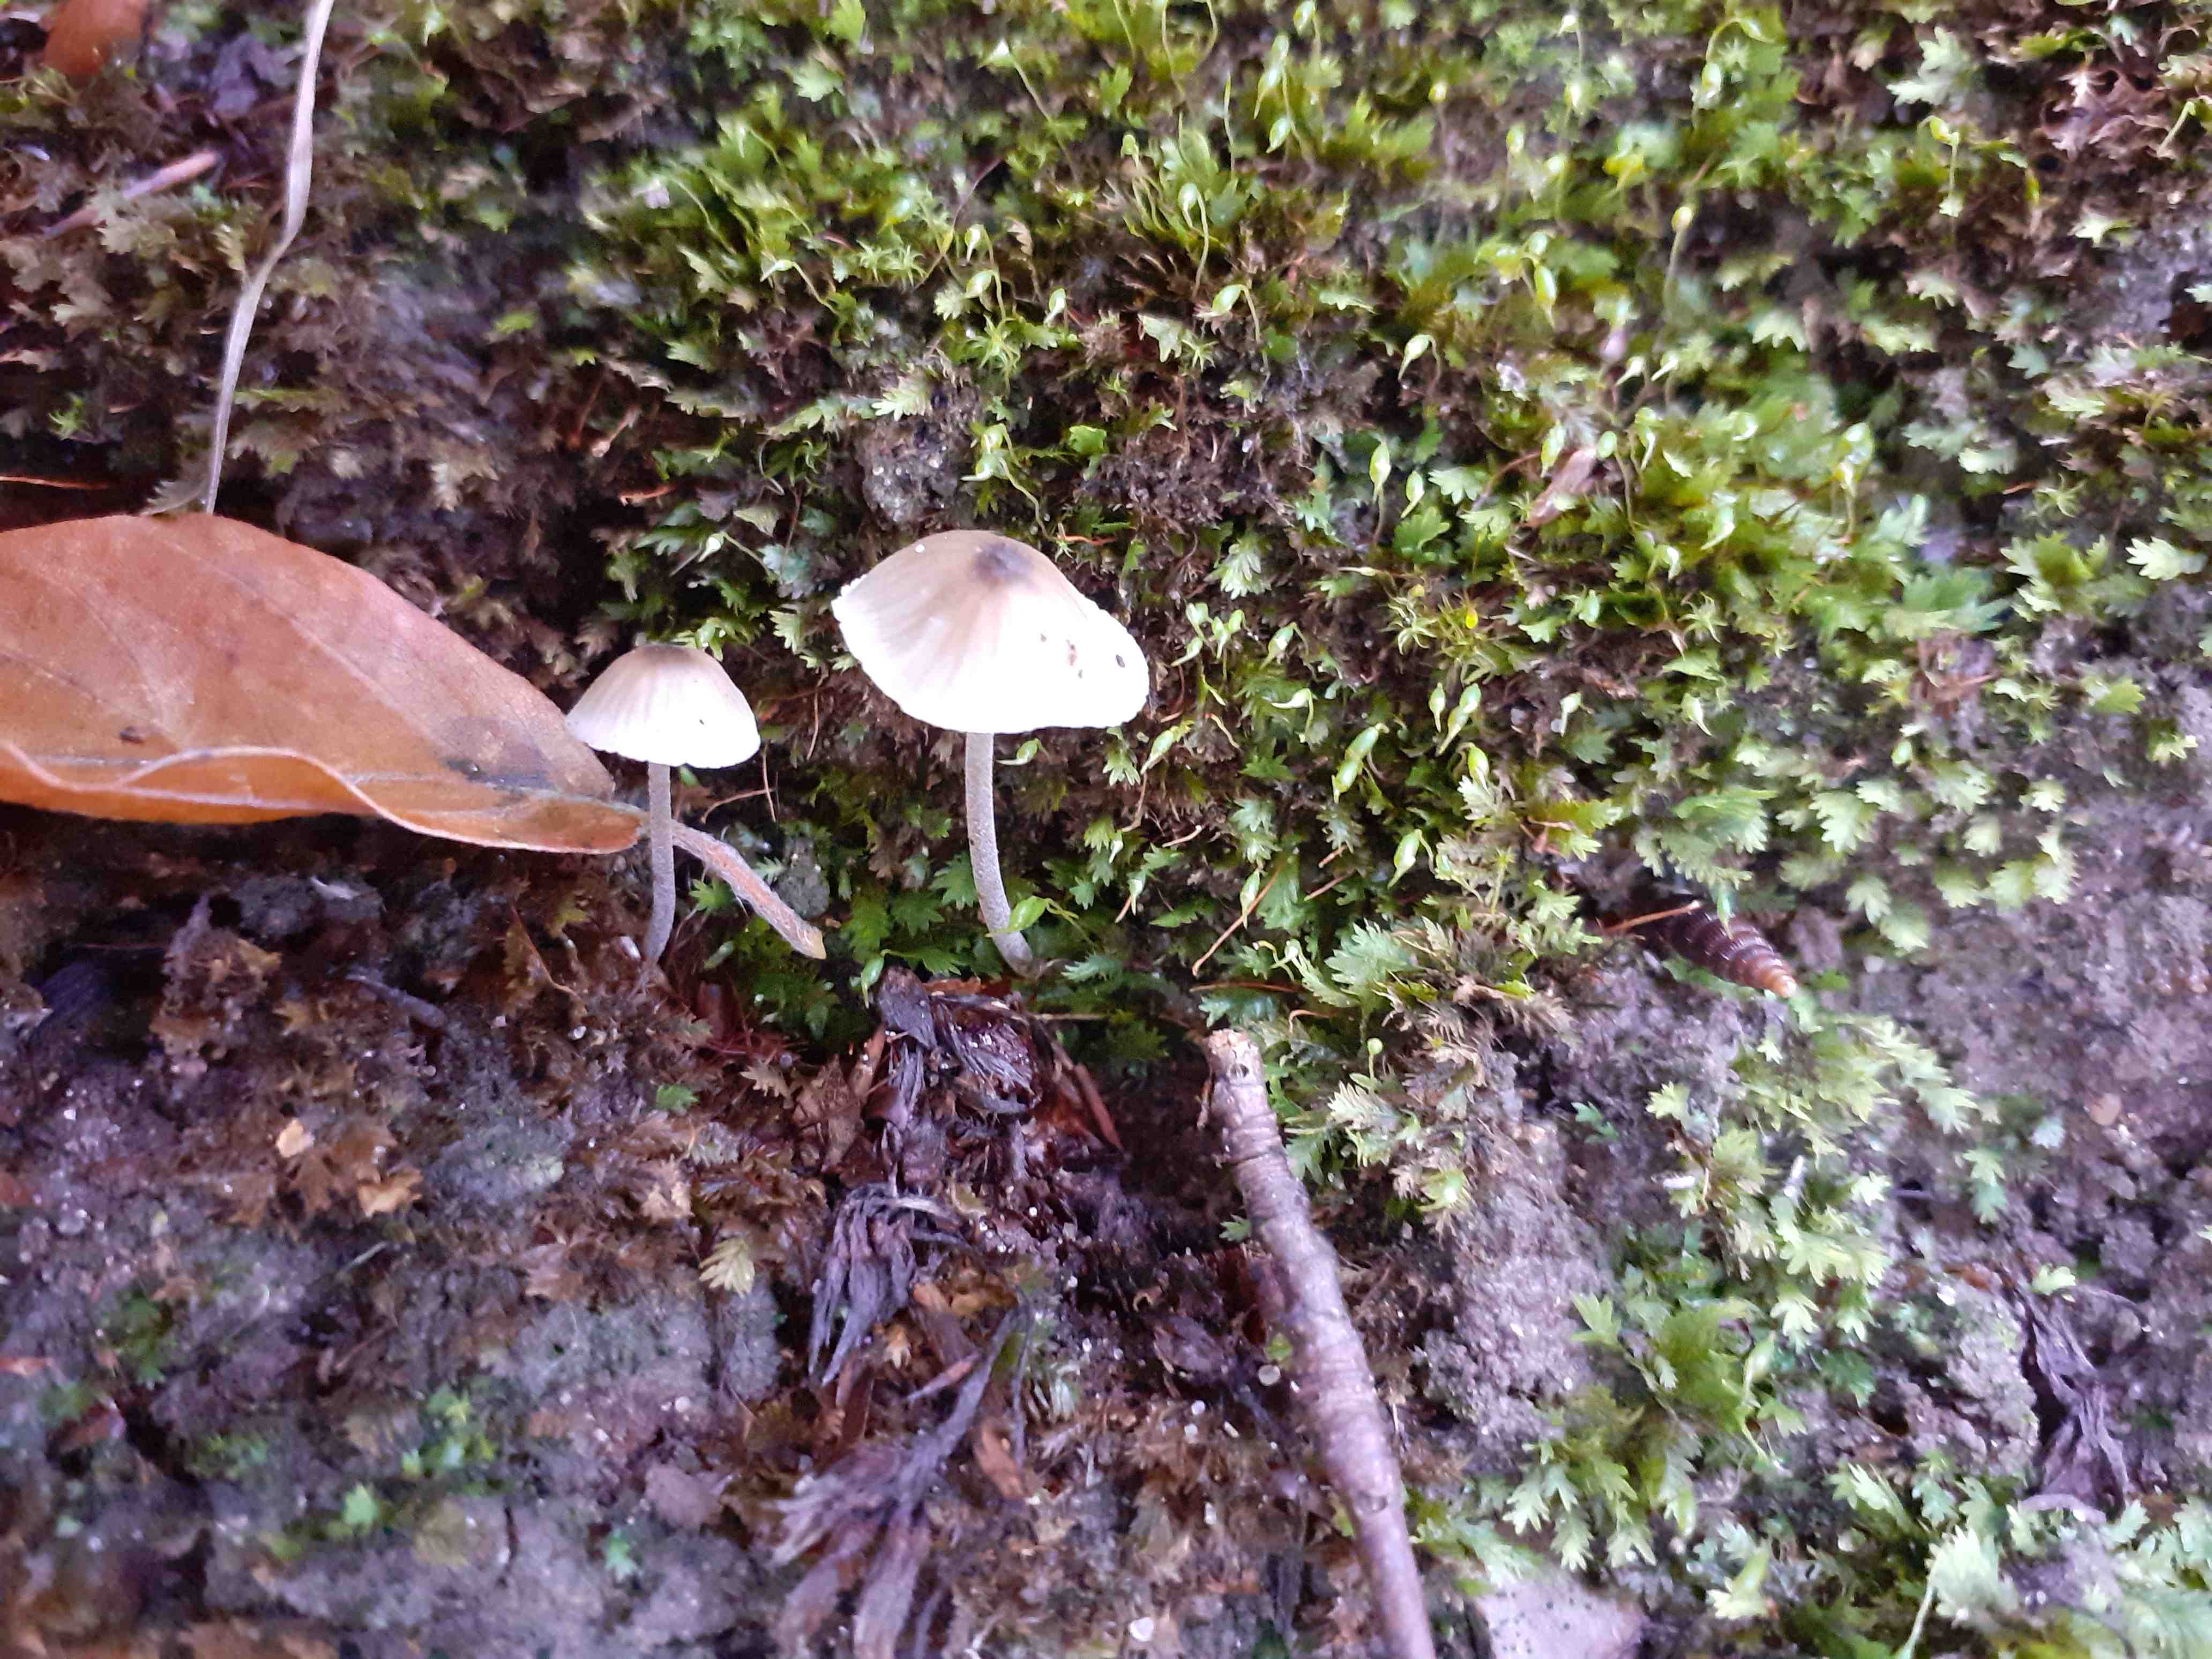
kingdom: Fungi
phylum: Basidiomycota
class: Agaricomycetes
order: Agaricales
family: Tricholomataceae
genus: Mycenella
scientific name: Mycenella trachyspora
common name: rødprikket dughat
